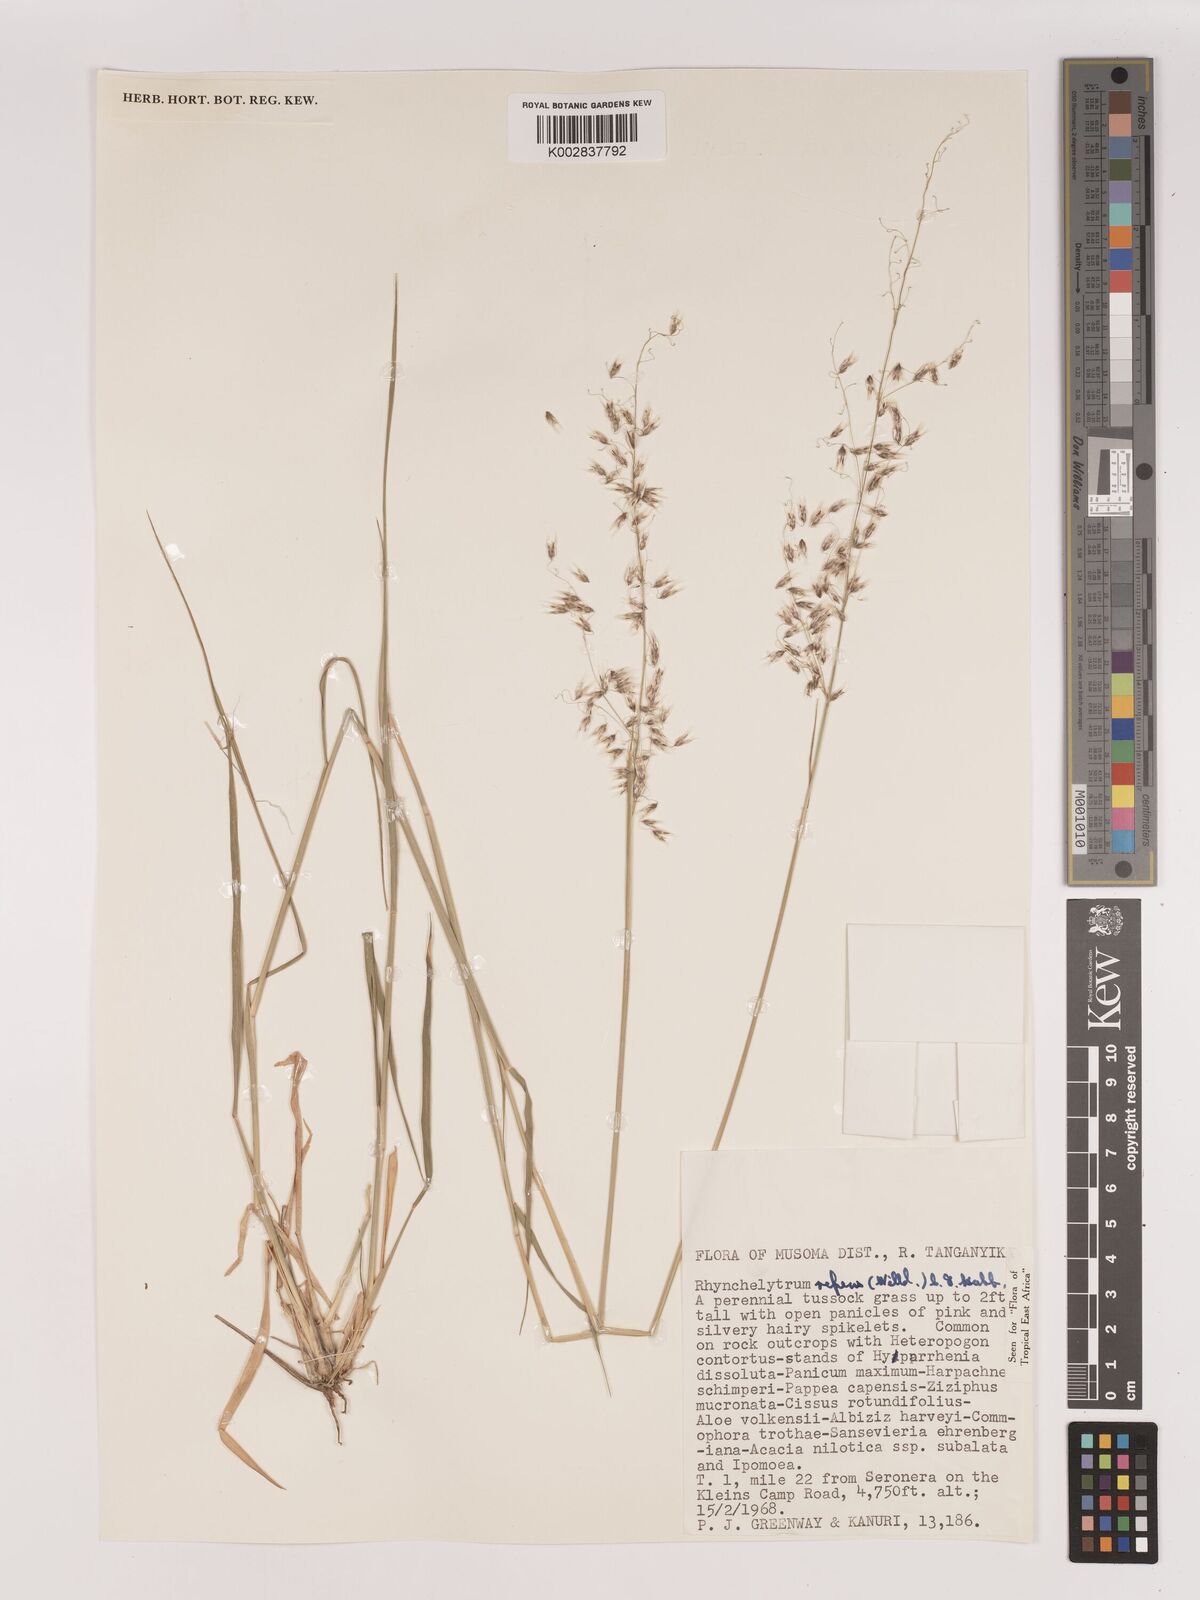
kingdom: Plantae
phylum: Tracheophyta
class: Liliopsida
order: Poales
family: Poaceae
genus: Melinis
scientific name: Melinis repens
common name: Rose natal grass
